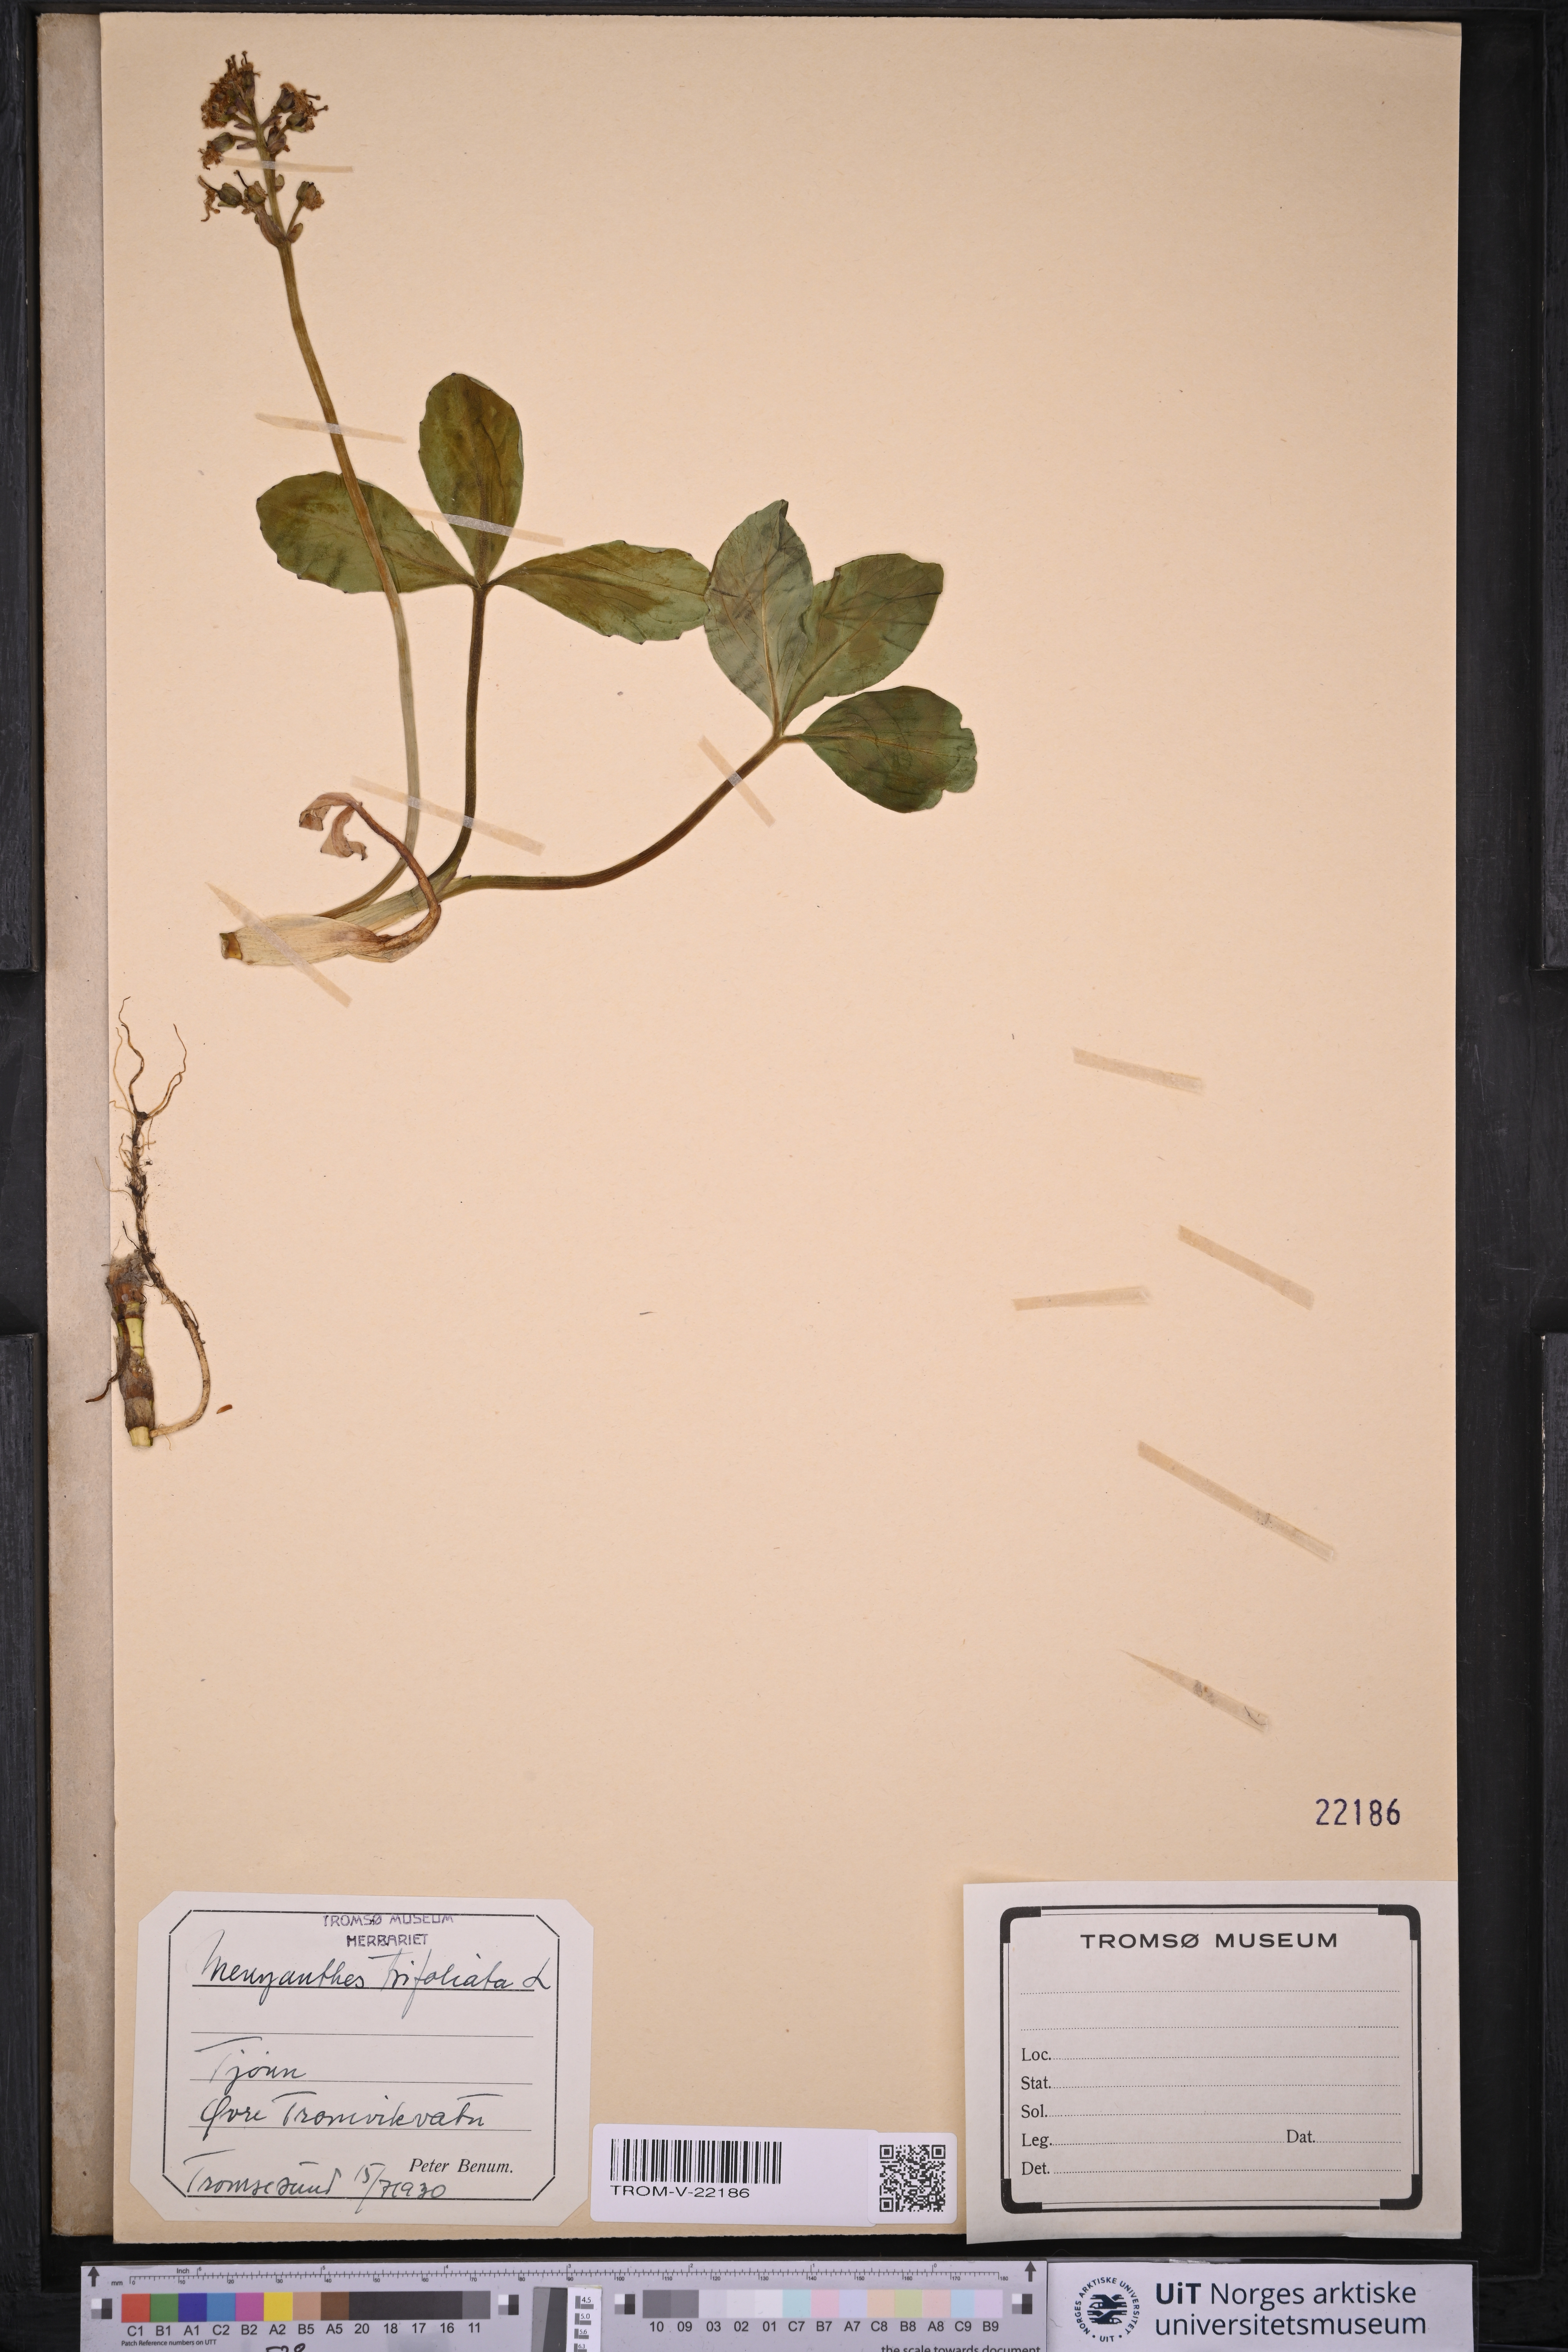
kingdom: Plantae
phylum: Tracheophyta
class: Magnoliopsida
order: Asterales
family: Menyanthaceae
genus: Menyanthes
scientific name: Menyanthes trifoliata
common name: Bogbean
